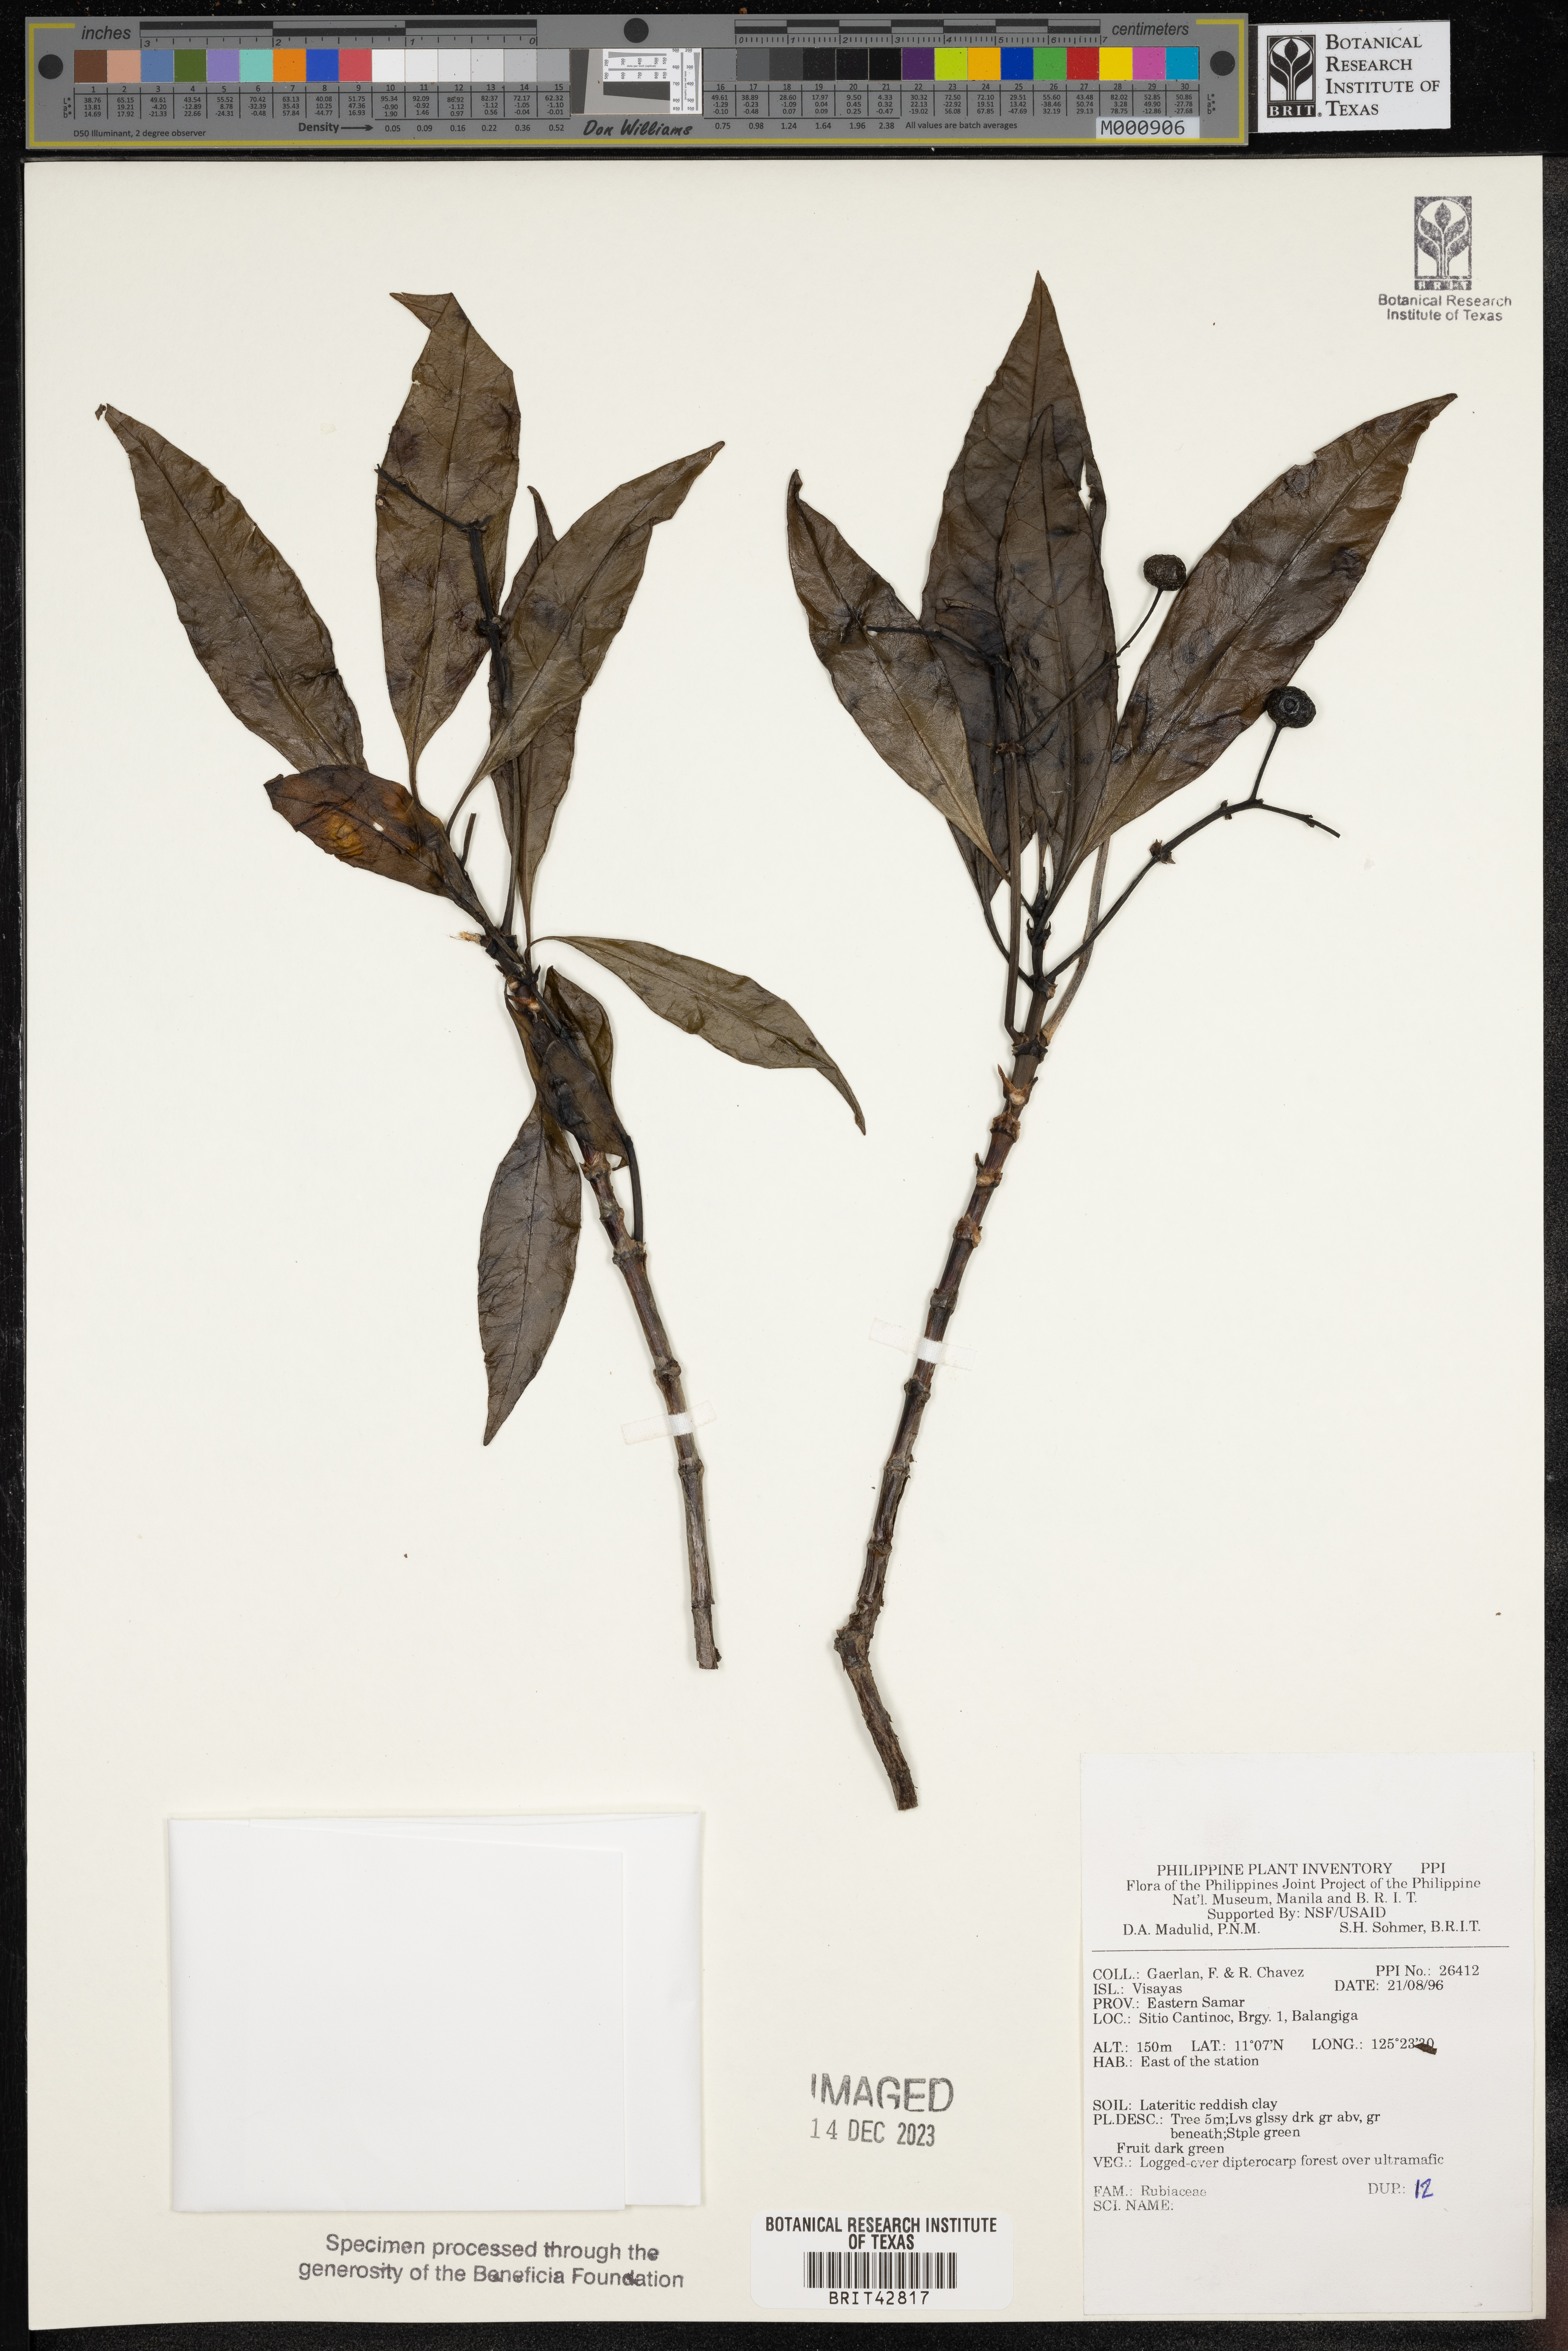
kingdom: Plantae
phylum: Tracheophyta
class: Magnoliopsida
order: Gentianales
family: Rubiaceae
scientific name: Rubiaceae
